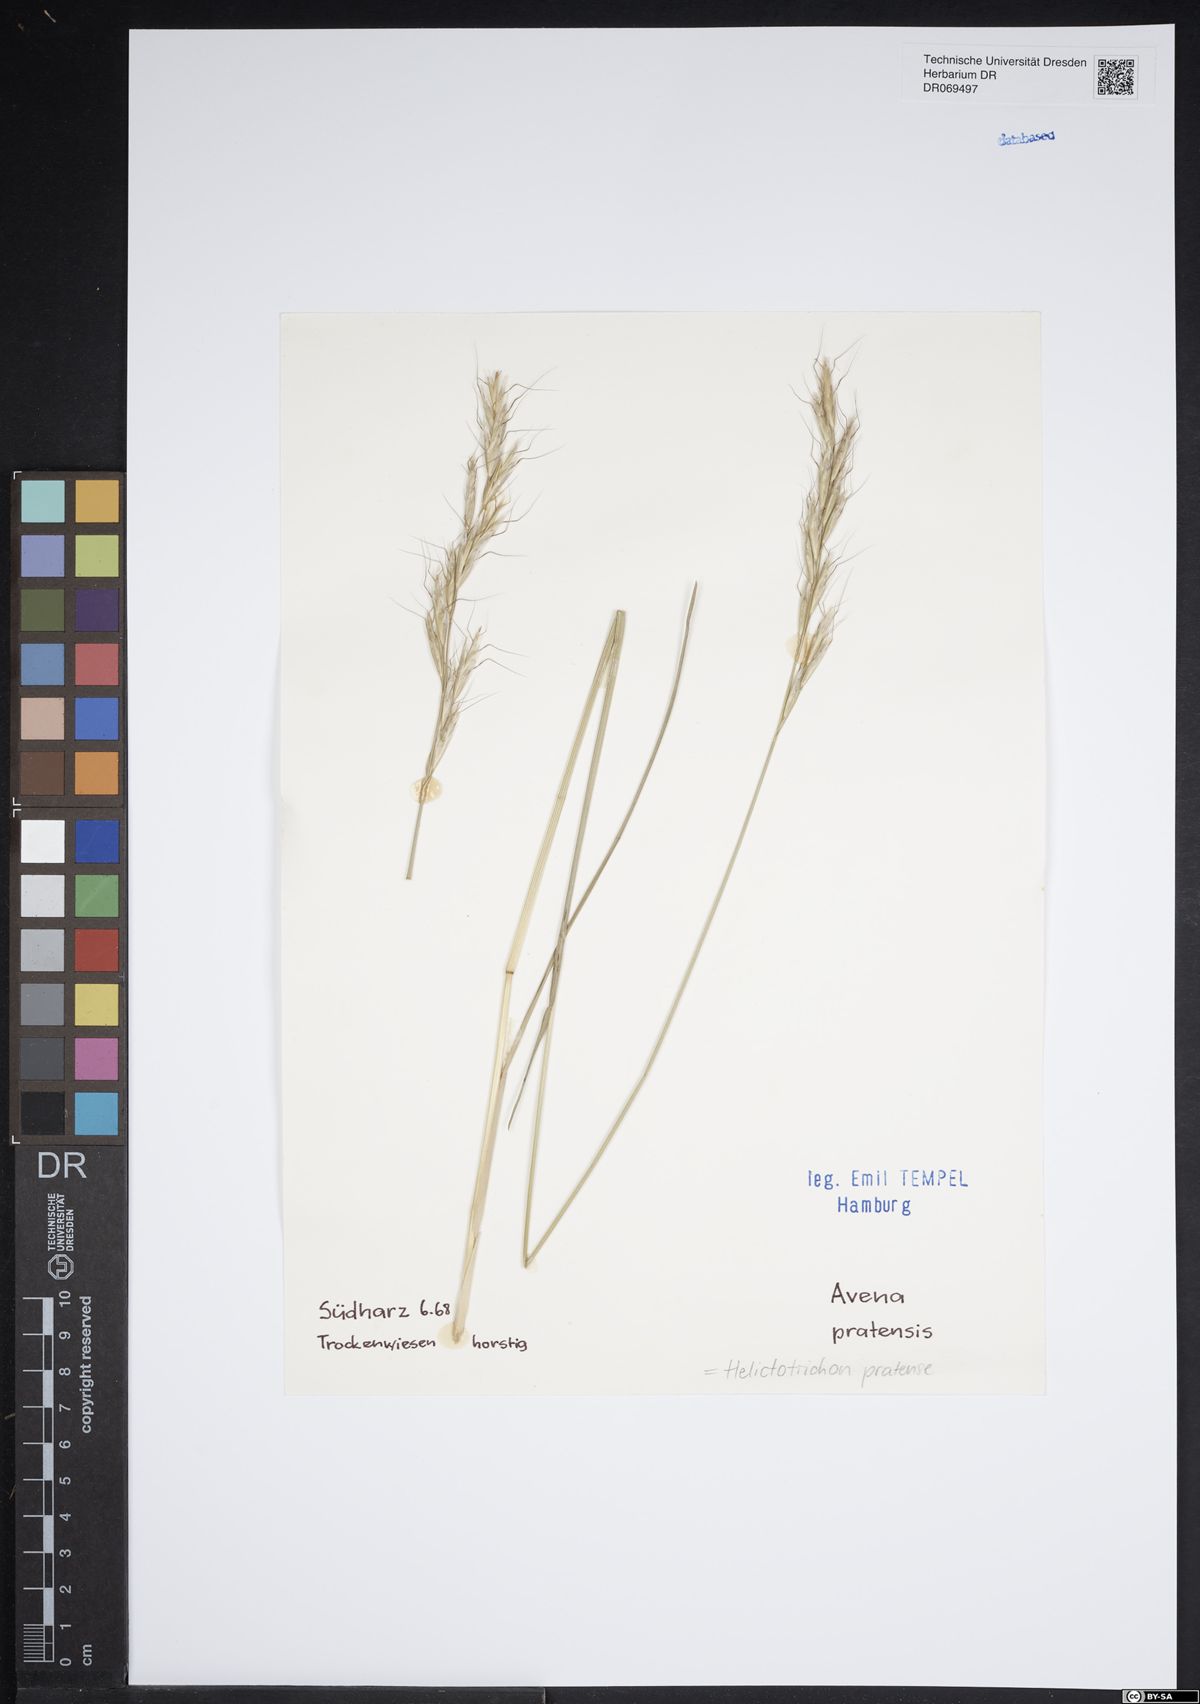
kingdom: Plantae
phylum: Tracheophyta
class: Liliopsida
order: Poales
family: Poaceae
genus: Helictochloa
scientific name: Helictochloa pratensis
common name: Meadow oat grass
